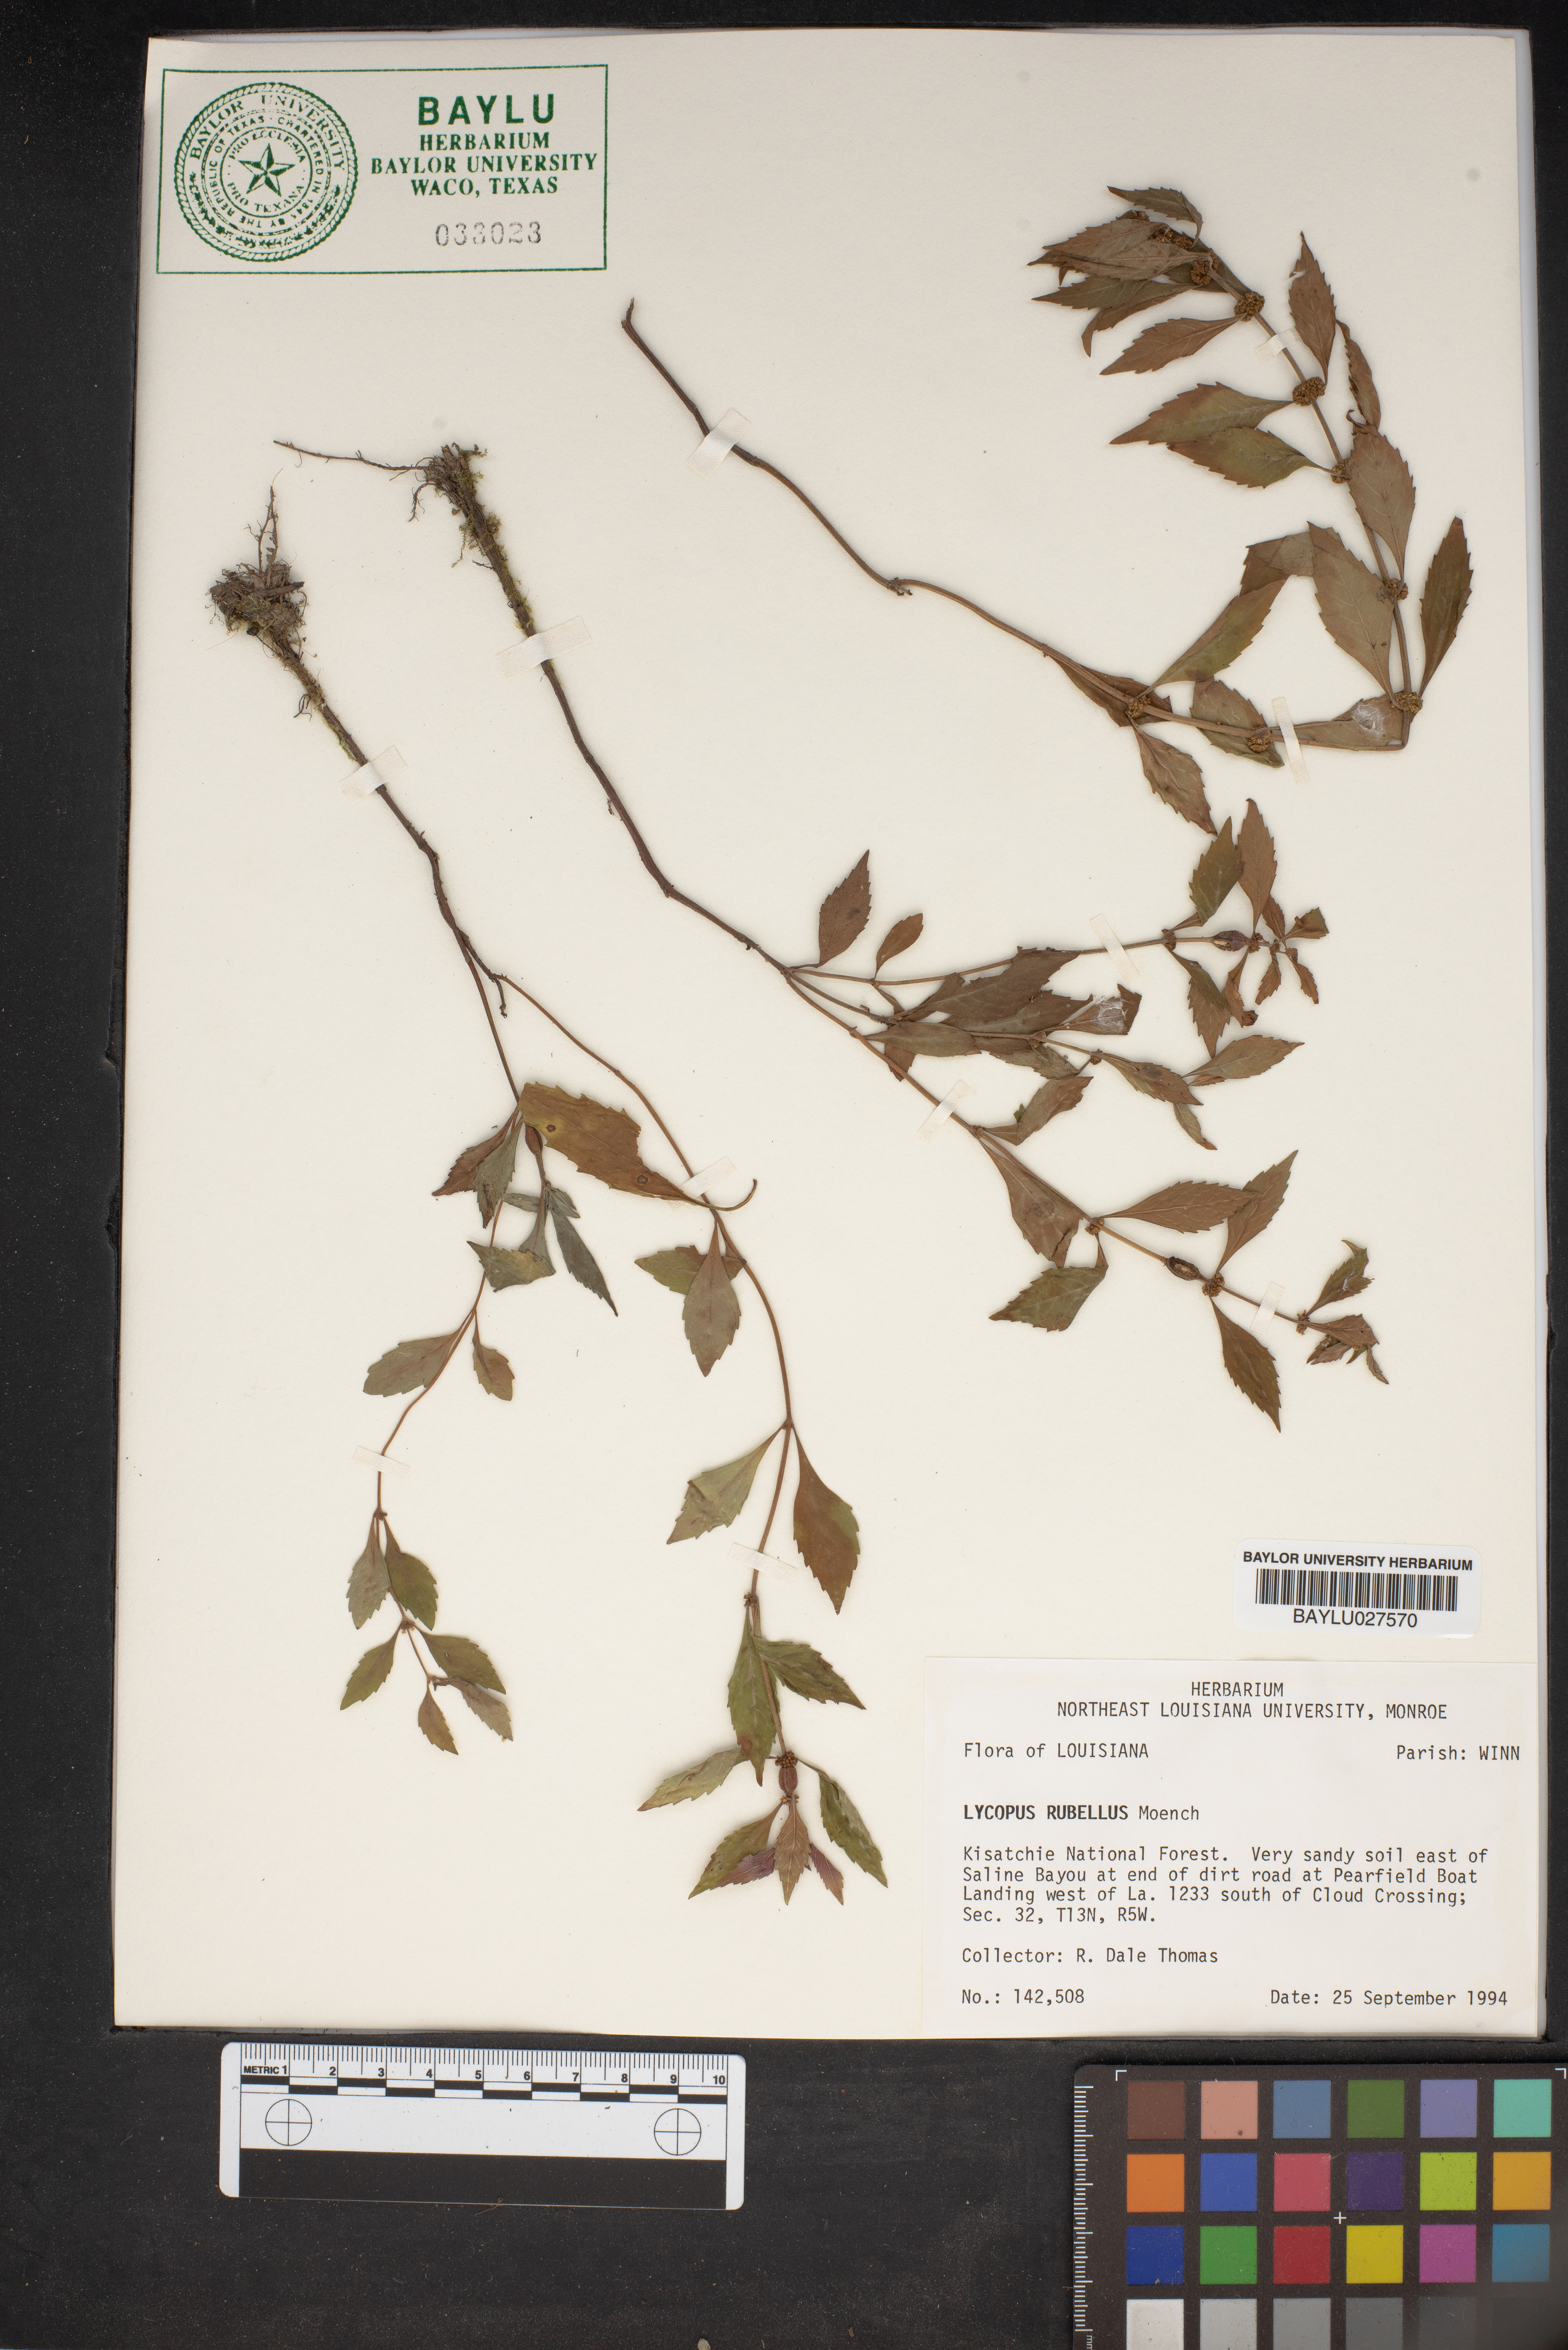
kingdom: Plantae
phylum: Tracheophyta
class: Magnoliopsida
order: Lamiales
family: Lamiaceae
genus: Lycopus
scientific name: Lycopus rubellus
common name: Stalked bugleweed
